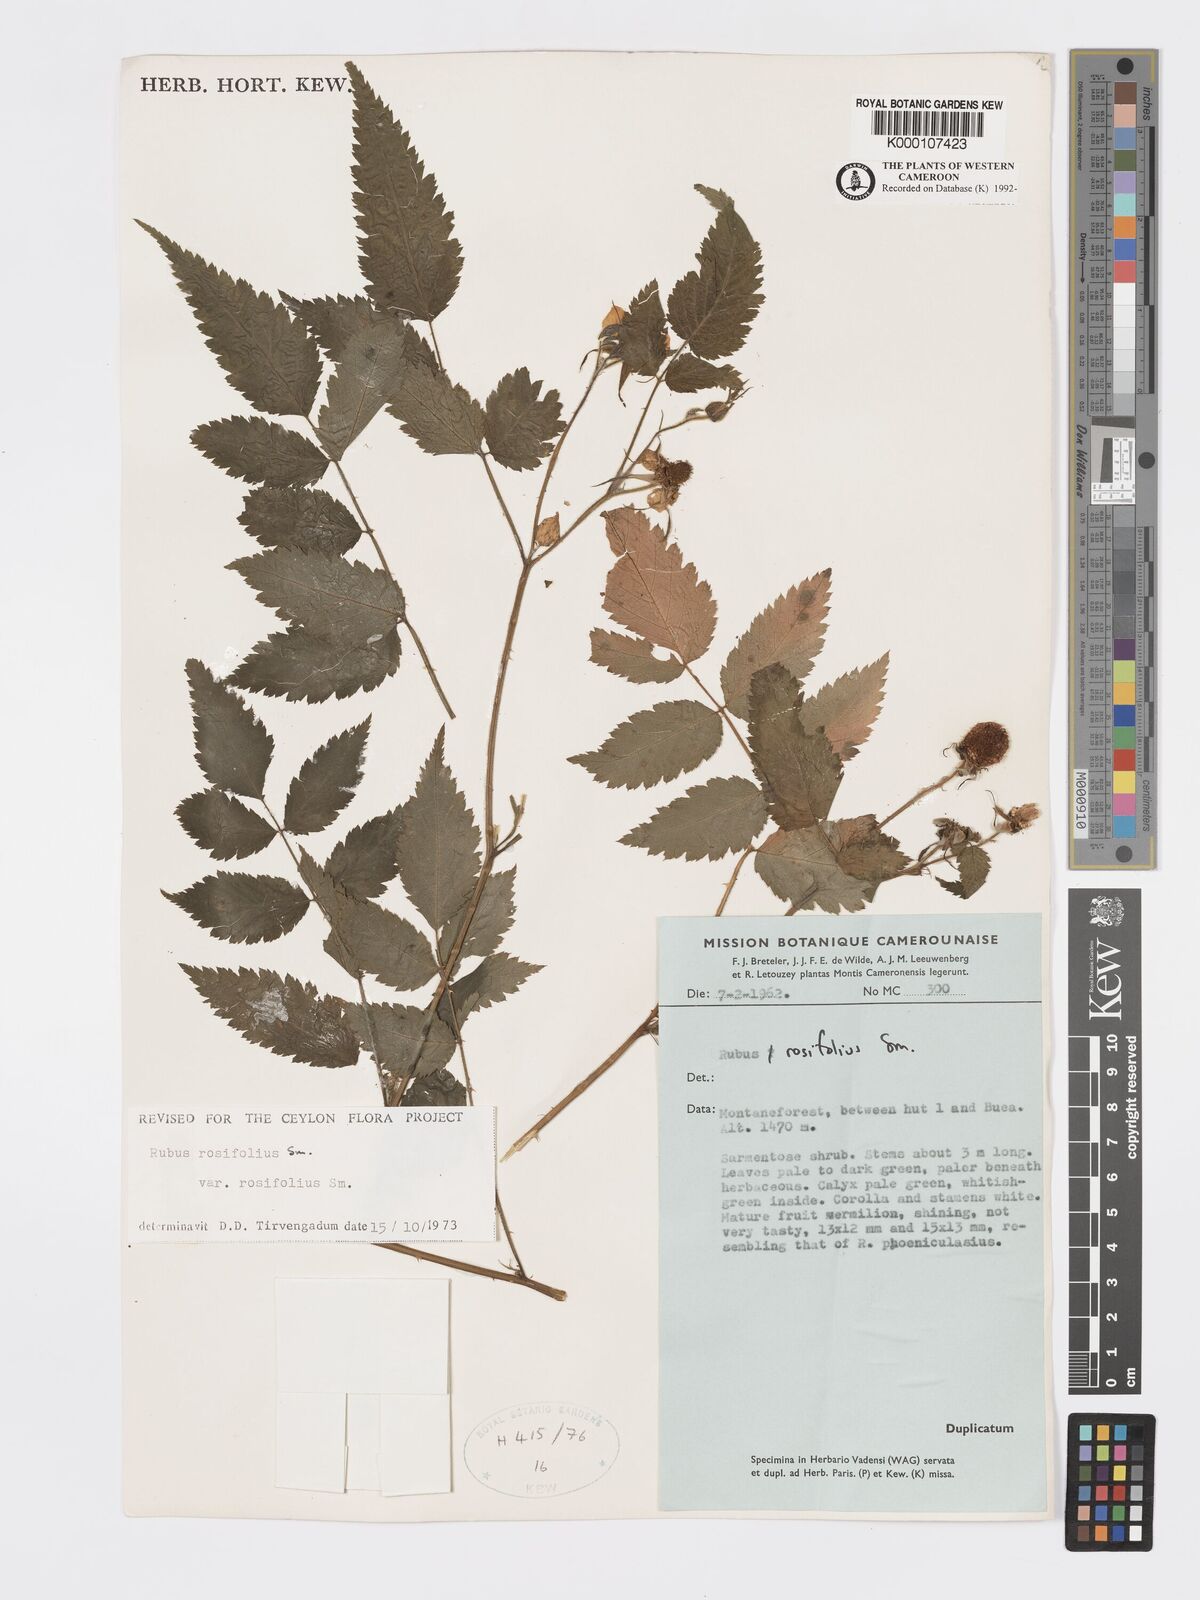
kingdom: Plantae
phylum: Tracheophyta
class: Magnoliopsida
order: Rosales
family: Rosaceae
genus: Rubus
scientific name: Rubus rosifolius
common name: Roseleaf raspberry
